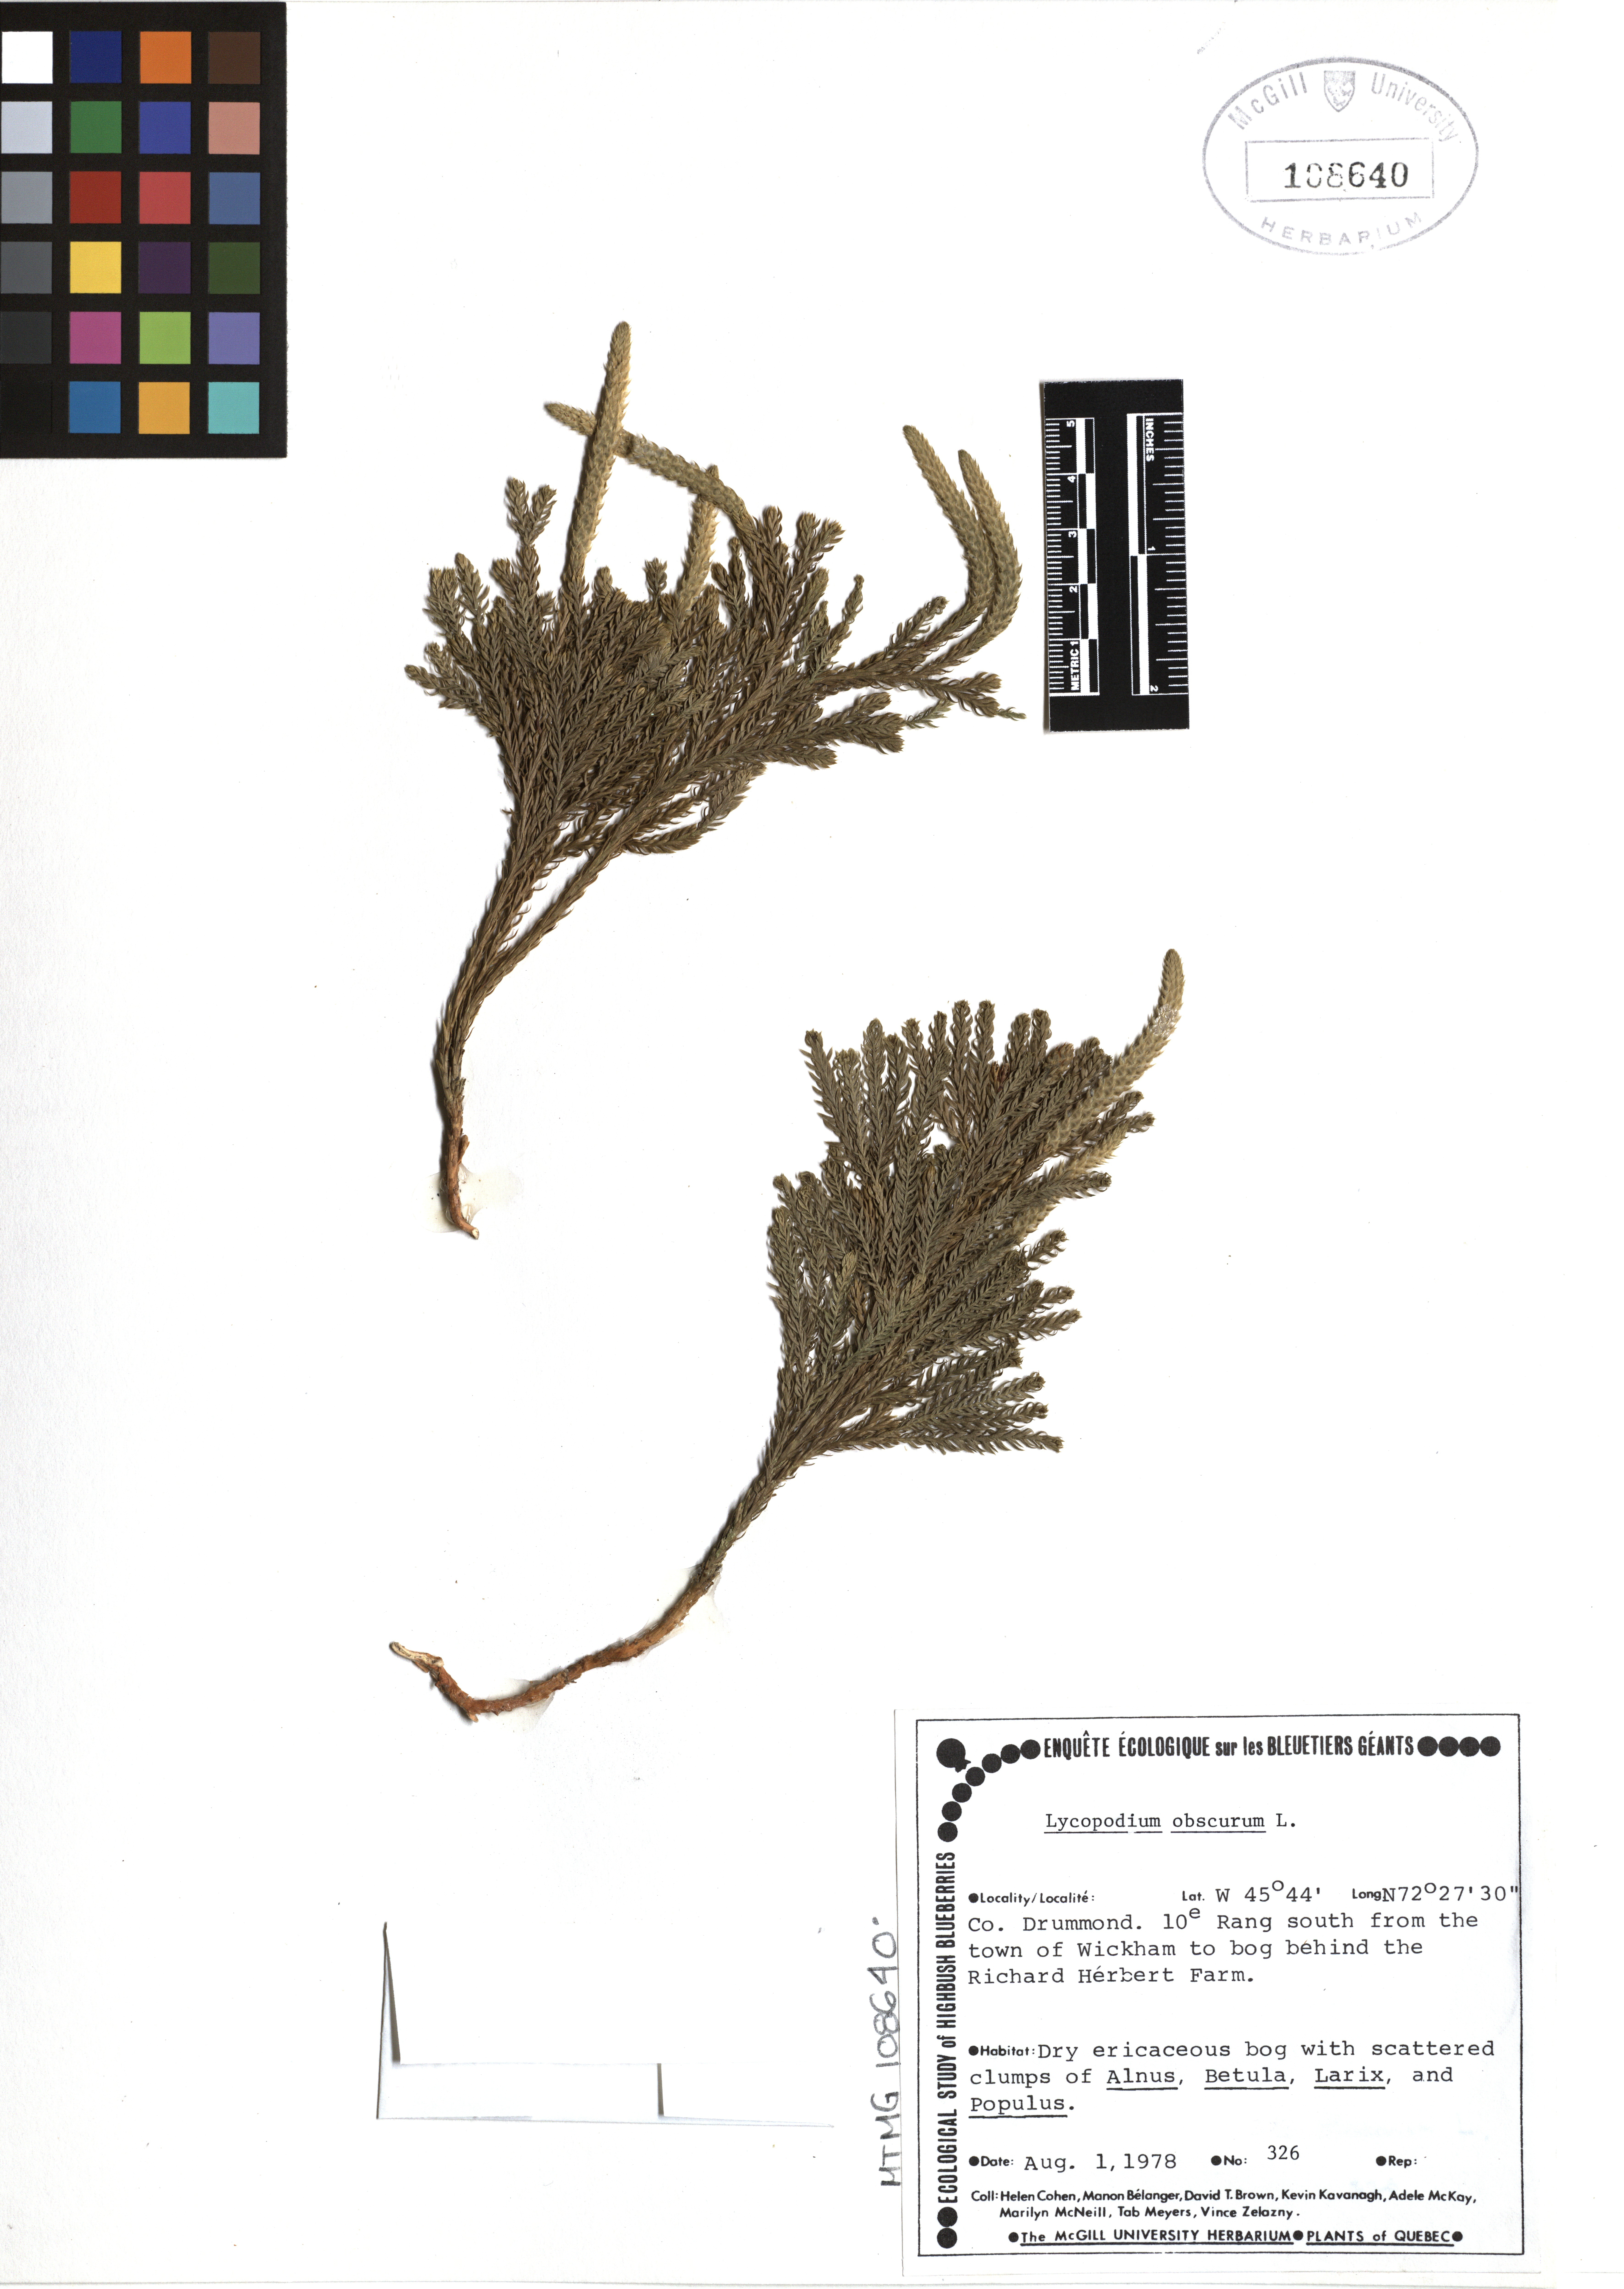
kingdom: Plantae
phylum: Tracheophyta
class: Lycopodiopsida
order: Lycopodiales
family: Lycopodiaceae
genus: Dendrolycopodium
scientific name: Dendrolycopodium obscurum
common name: Common ground-pine
